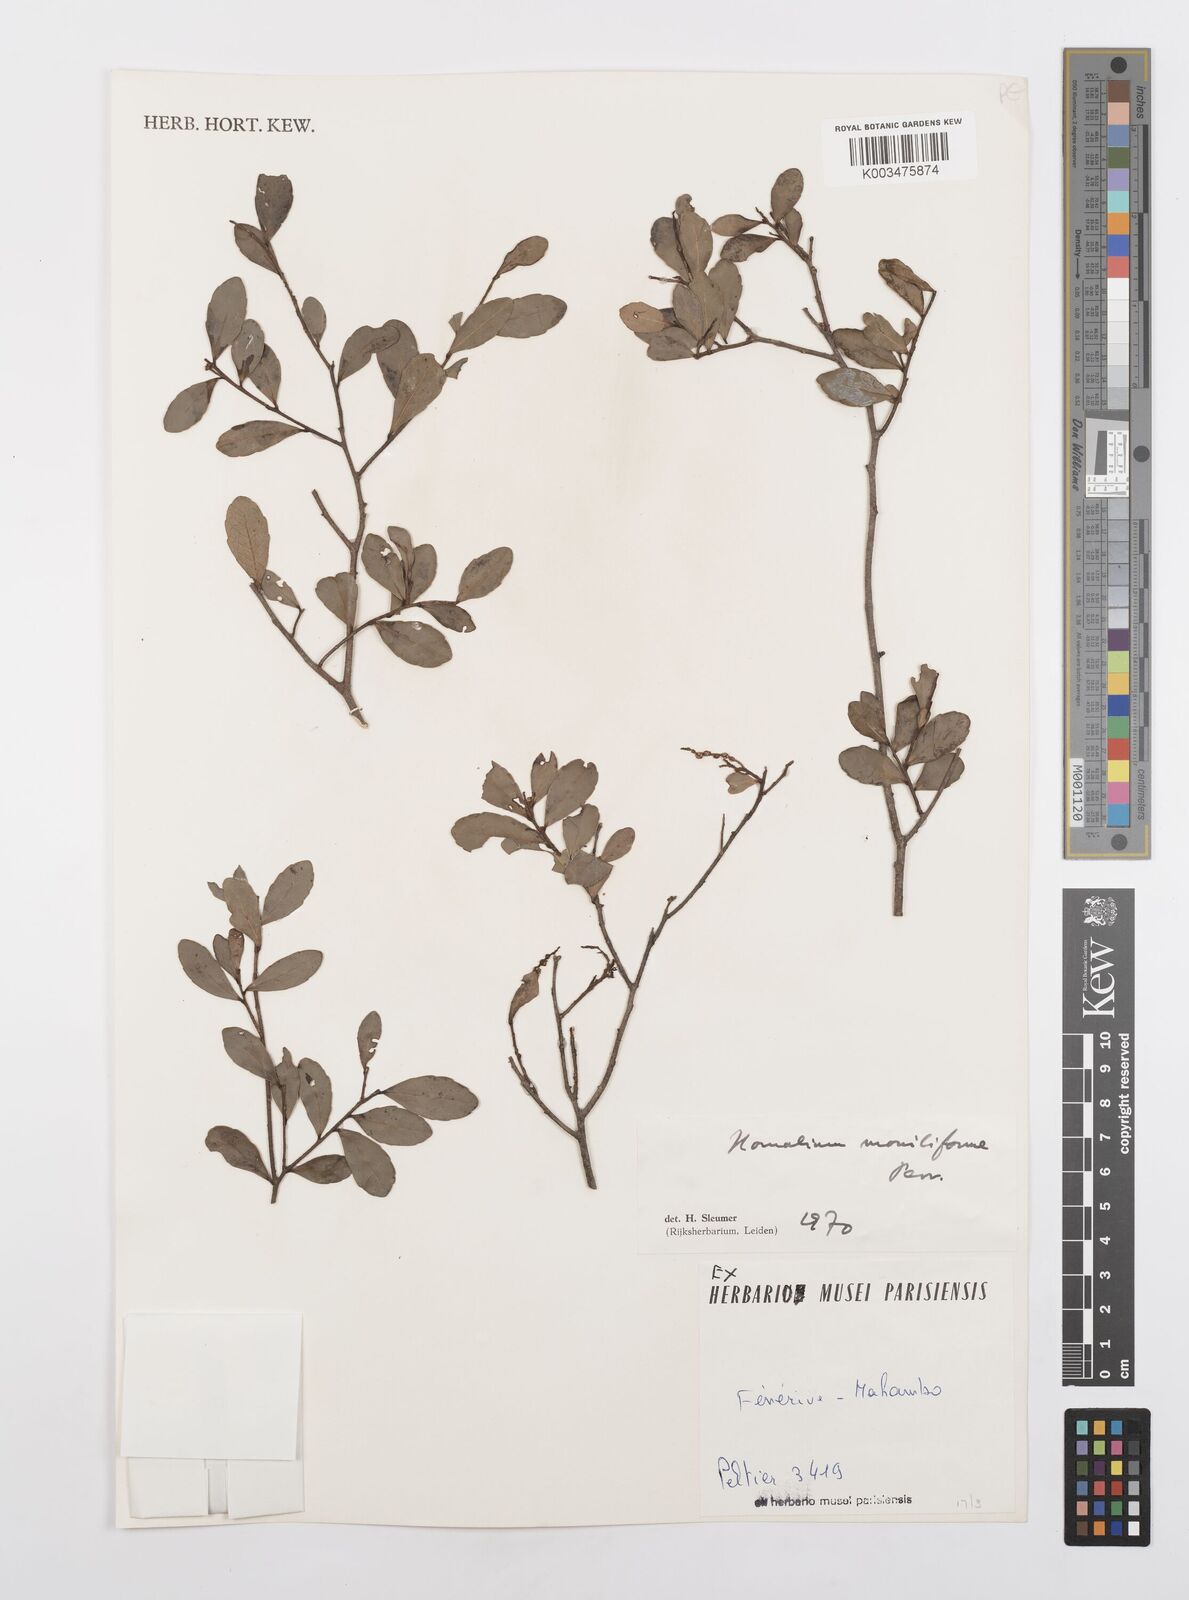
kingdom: Plantae
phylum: Tracheophyta
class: Magnoliopsida
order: Malpighiales
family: Salicaceae
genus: Homalium
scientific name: Homalium moniliforme
